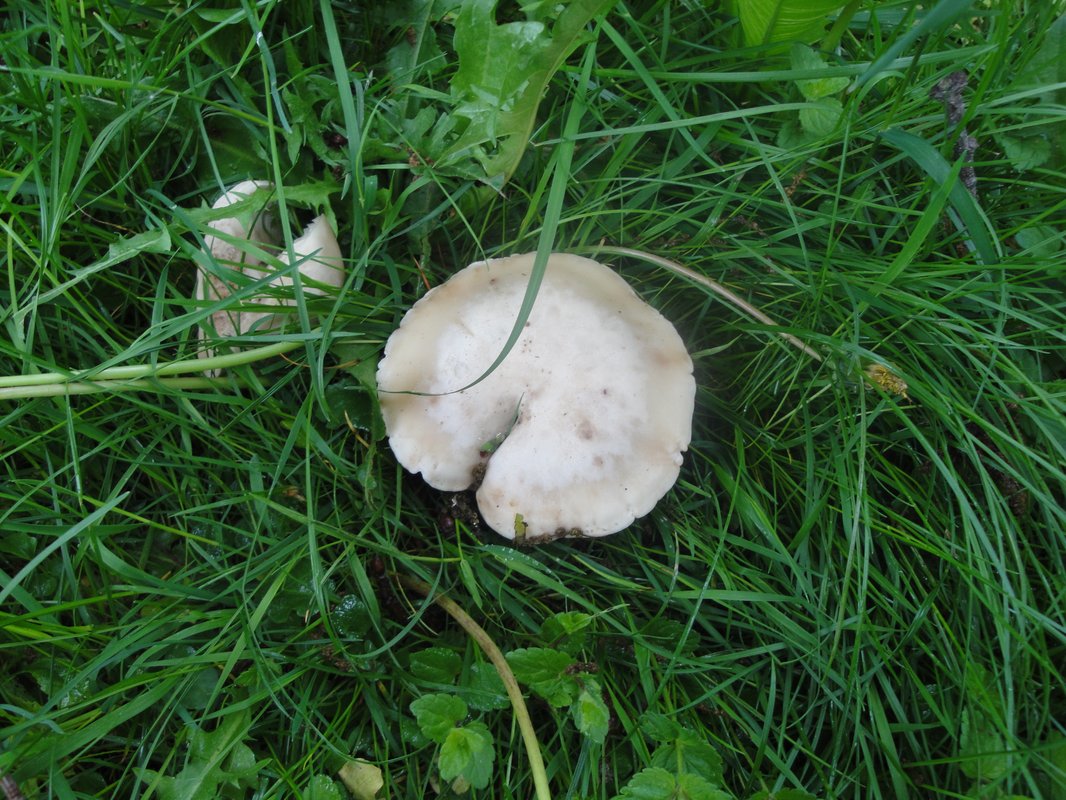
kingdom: Fungi
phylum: Basidiomycota
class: Agaricomycetes
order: Agaricales
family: Lyophyllaceae
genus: Calocybe
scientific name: Calocybe gambosa
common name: vårmusseron
